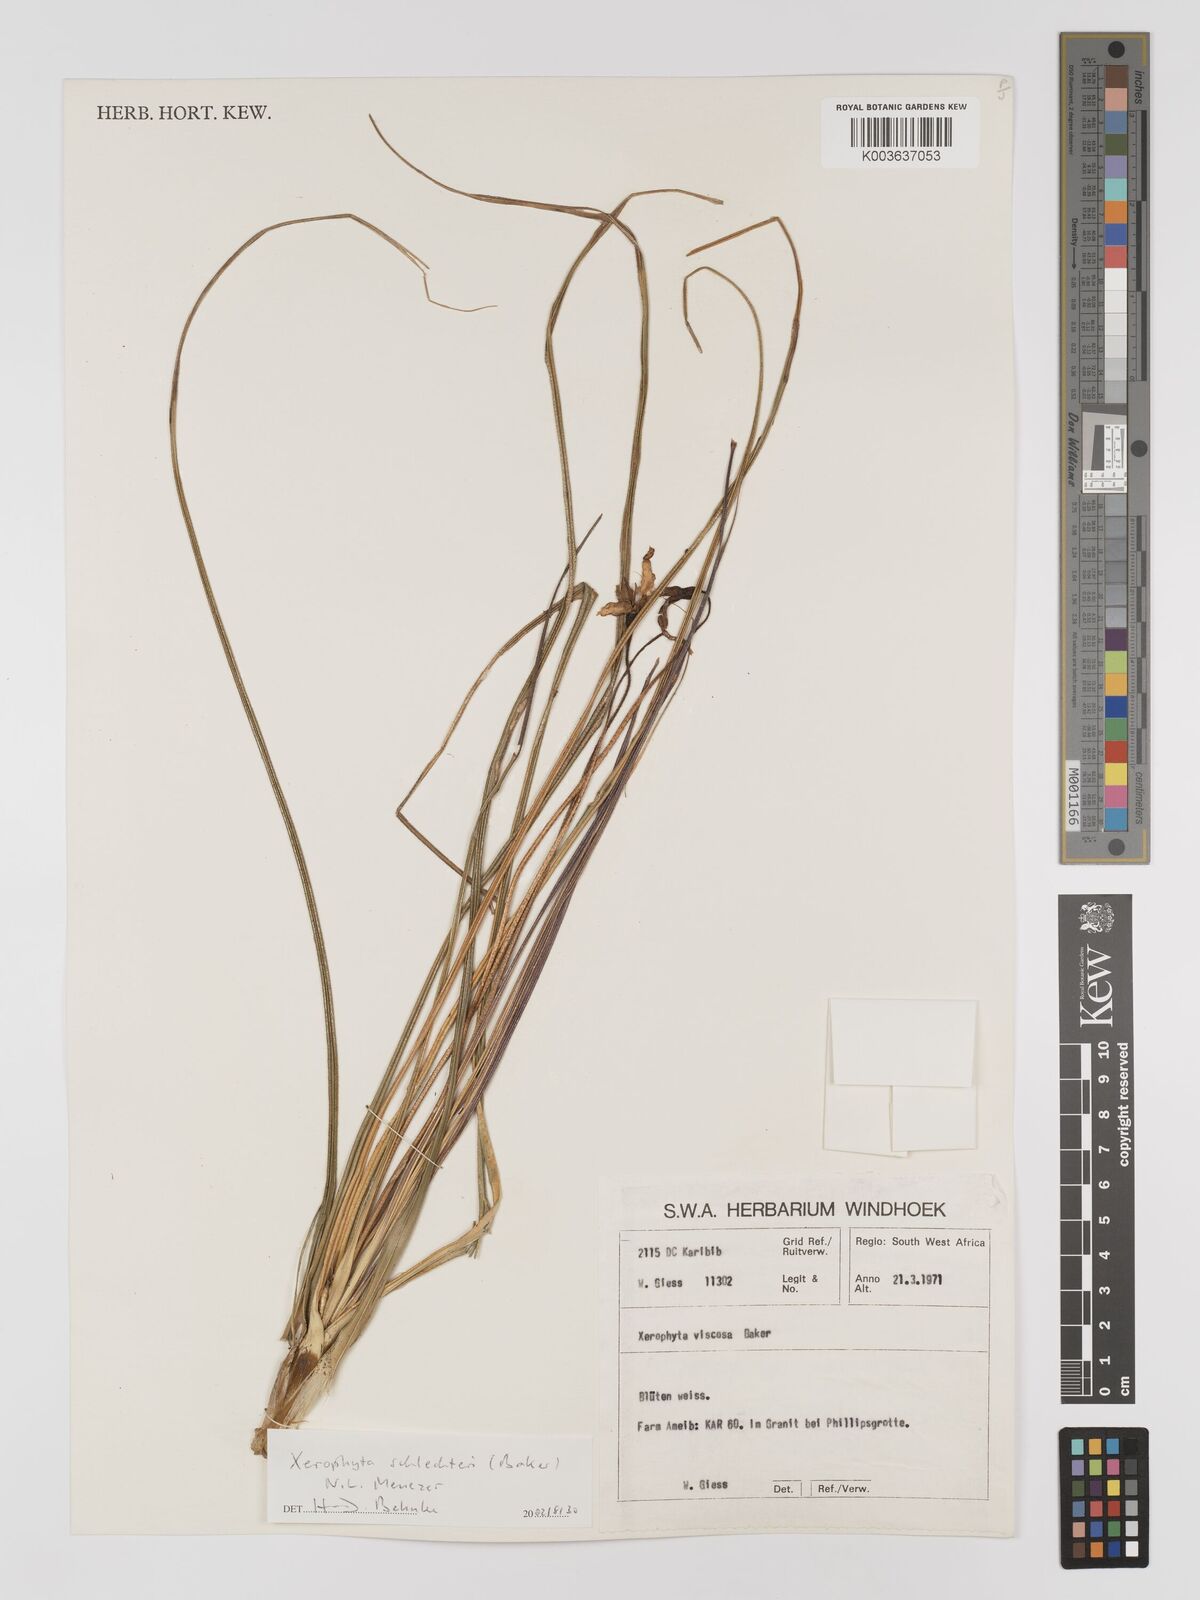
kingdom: Plantae
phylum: Tracheophyta
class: Liliopsida
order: Pandanales
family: Velloziaceae
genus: Xerophyta
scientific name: Xerophyta schlechteri
